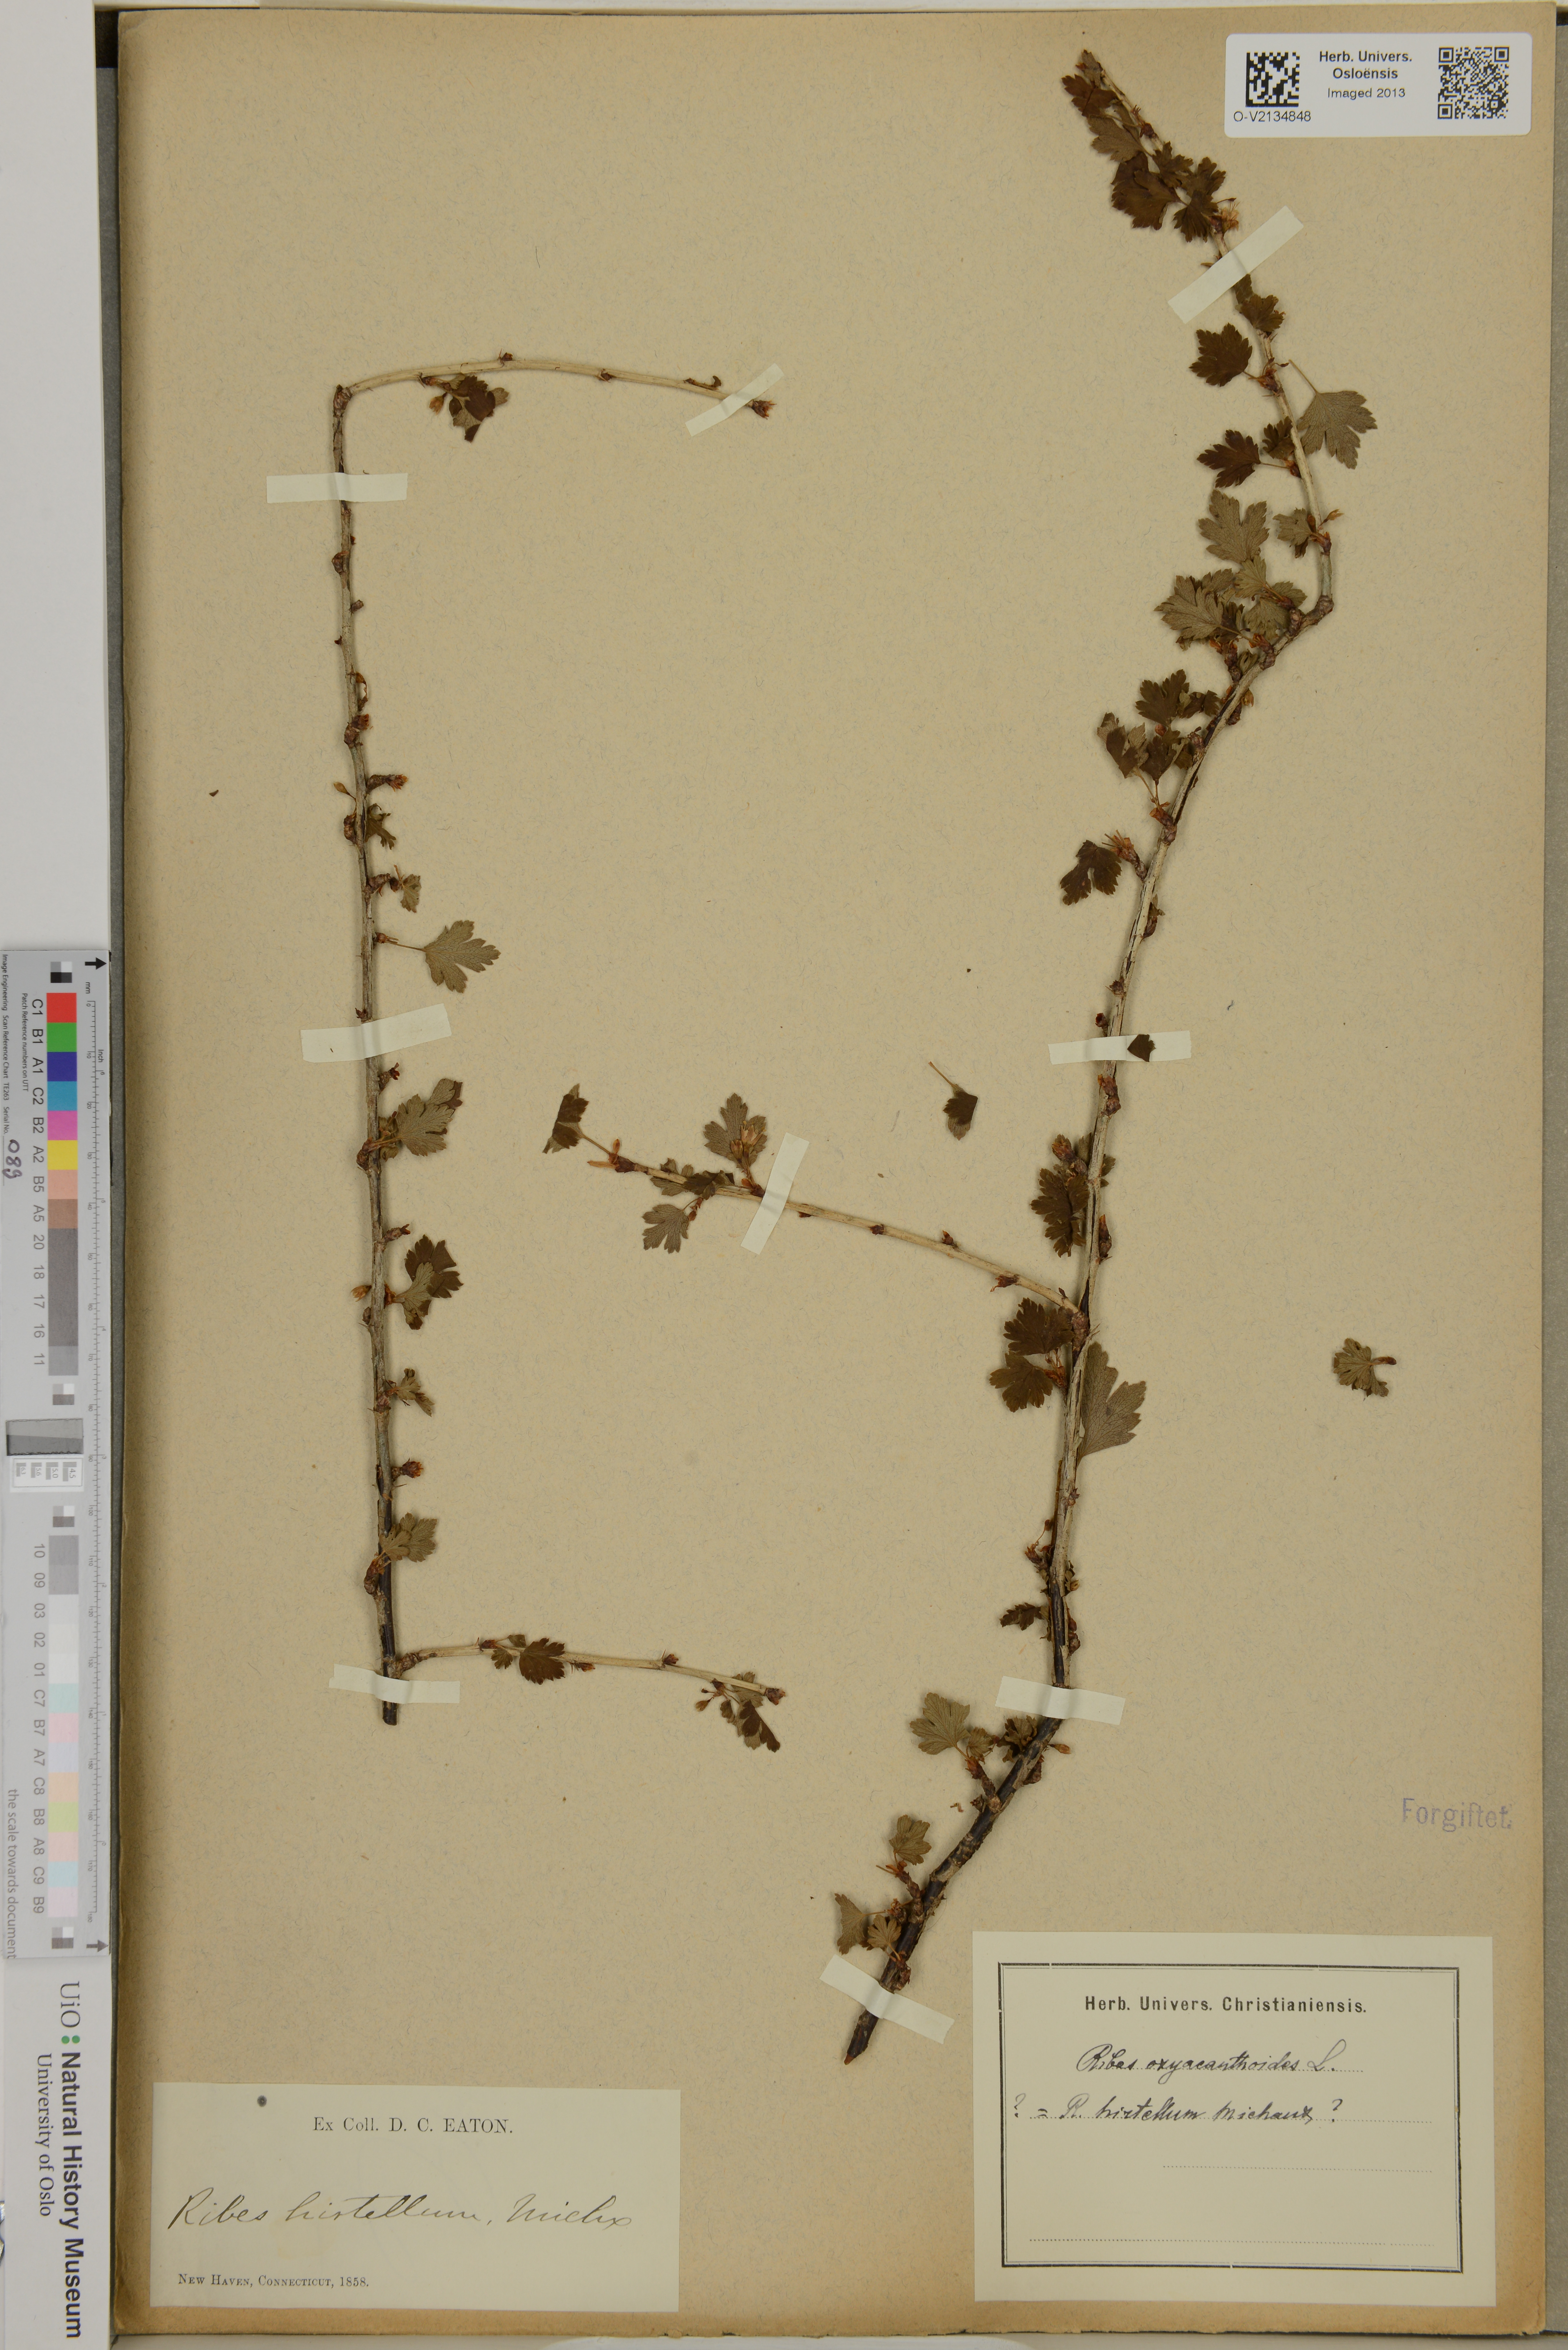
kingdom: Plantae
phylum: Tracheophyta
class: Magnoliopsida
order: Saxifragales
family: Grossulariaceae
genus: Ribes
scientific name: Ribes oxyacanthoides
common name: Northern gooseberry
